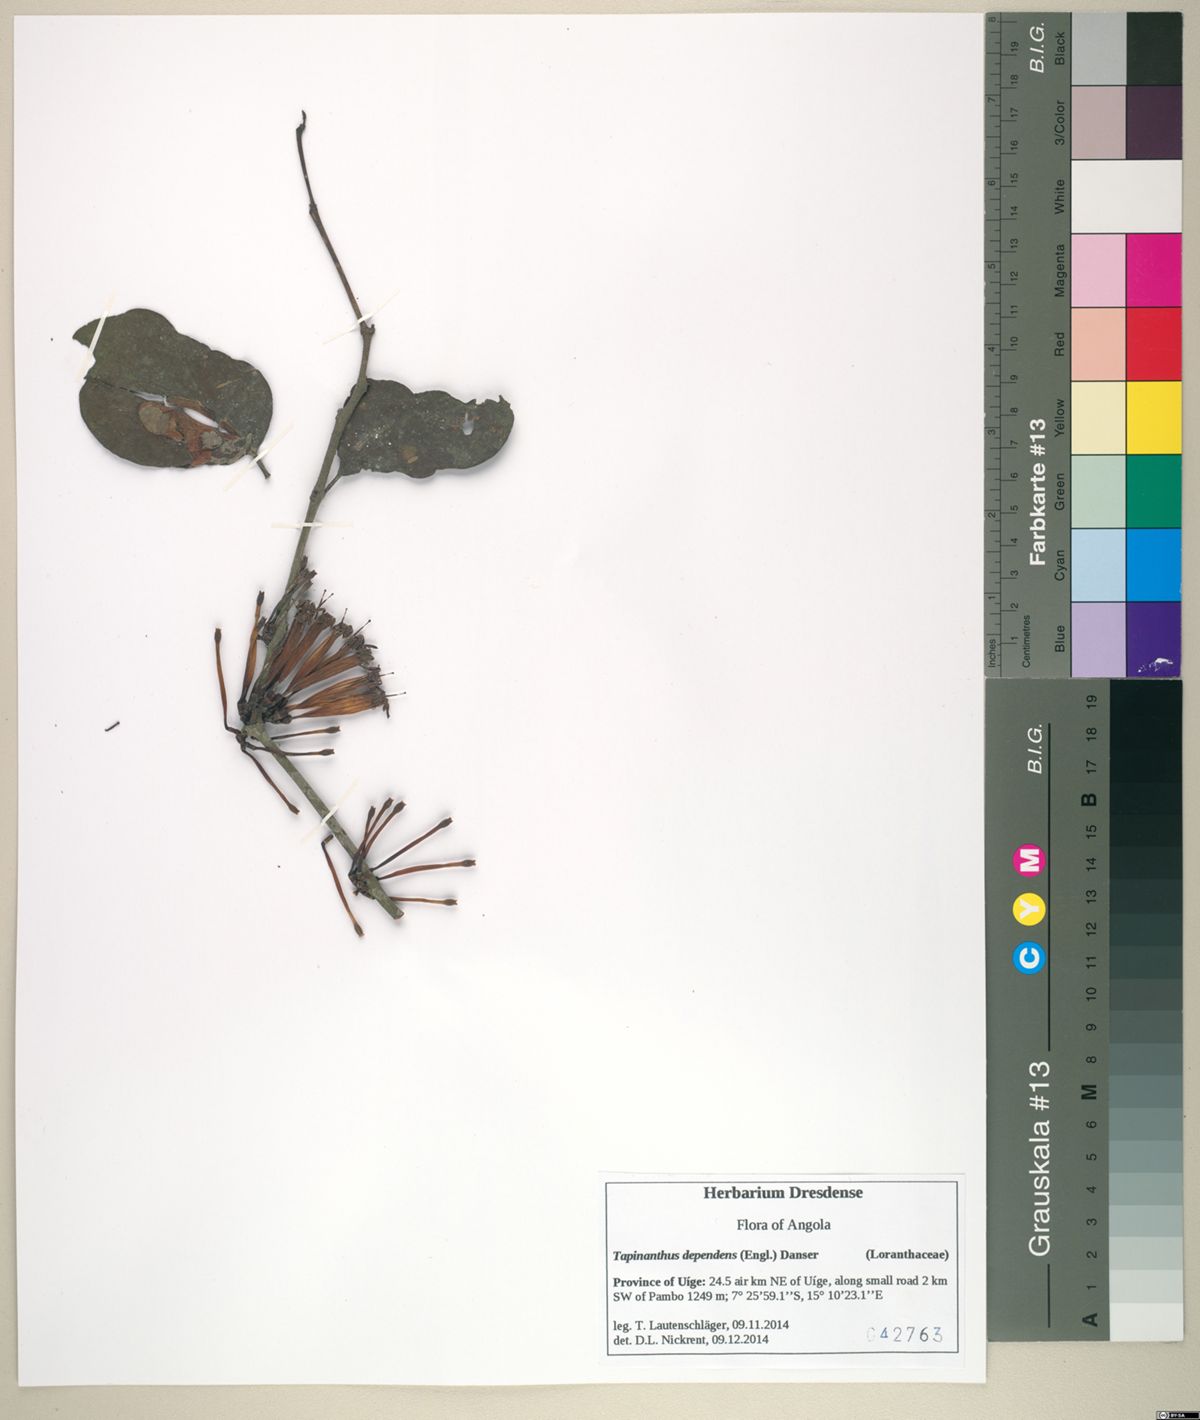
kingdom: Plantae
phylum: Tracheophyta
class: Magnoliopsida
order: Santalales
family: Loranthaceae
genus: Tapinanthus
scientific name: Tapinanthus dependens
